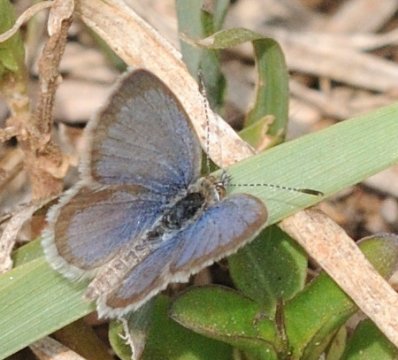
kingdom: Animalia
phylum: Arthropoda
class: Insecta
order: Lepidoptera
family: Lycaenidae
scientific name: Lycaenidae
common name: Gossamerwings
